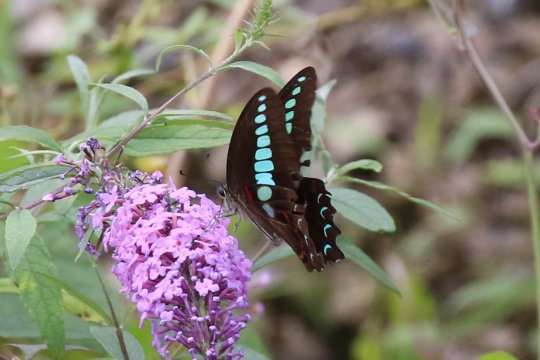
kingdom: Fungi
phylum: Ascomycota
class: Sordariomycetes
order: Microascales
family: Microascaceae
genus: Graphium
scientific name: Graphium sarpedon
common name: Common Bluebottle
